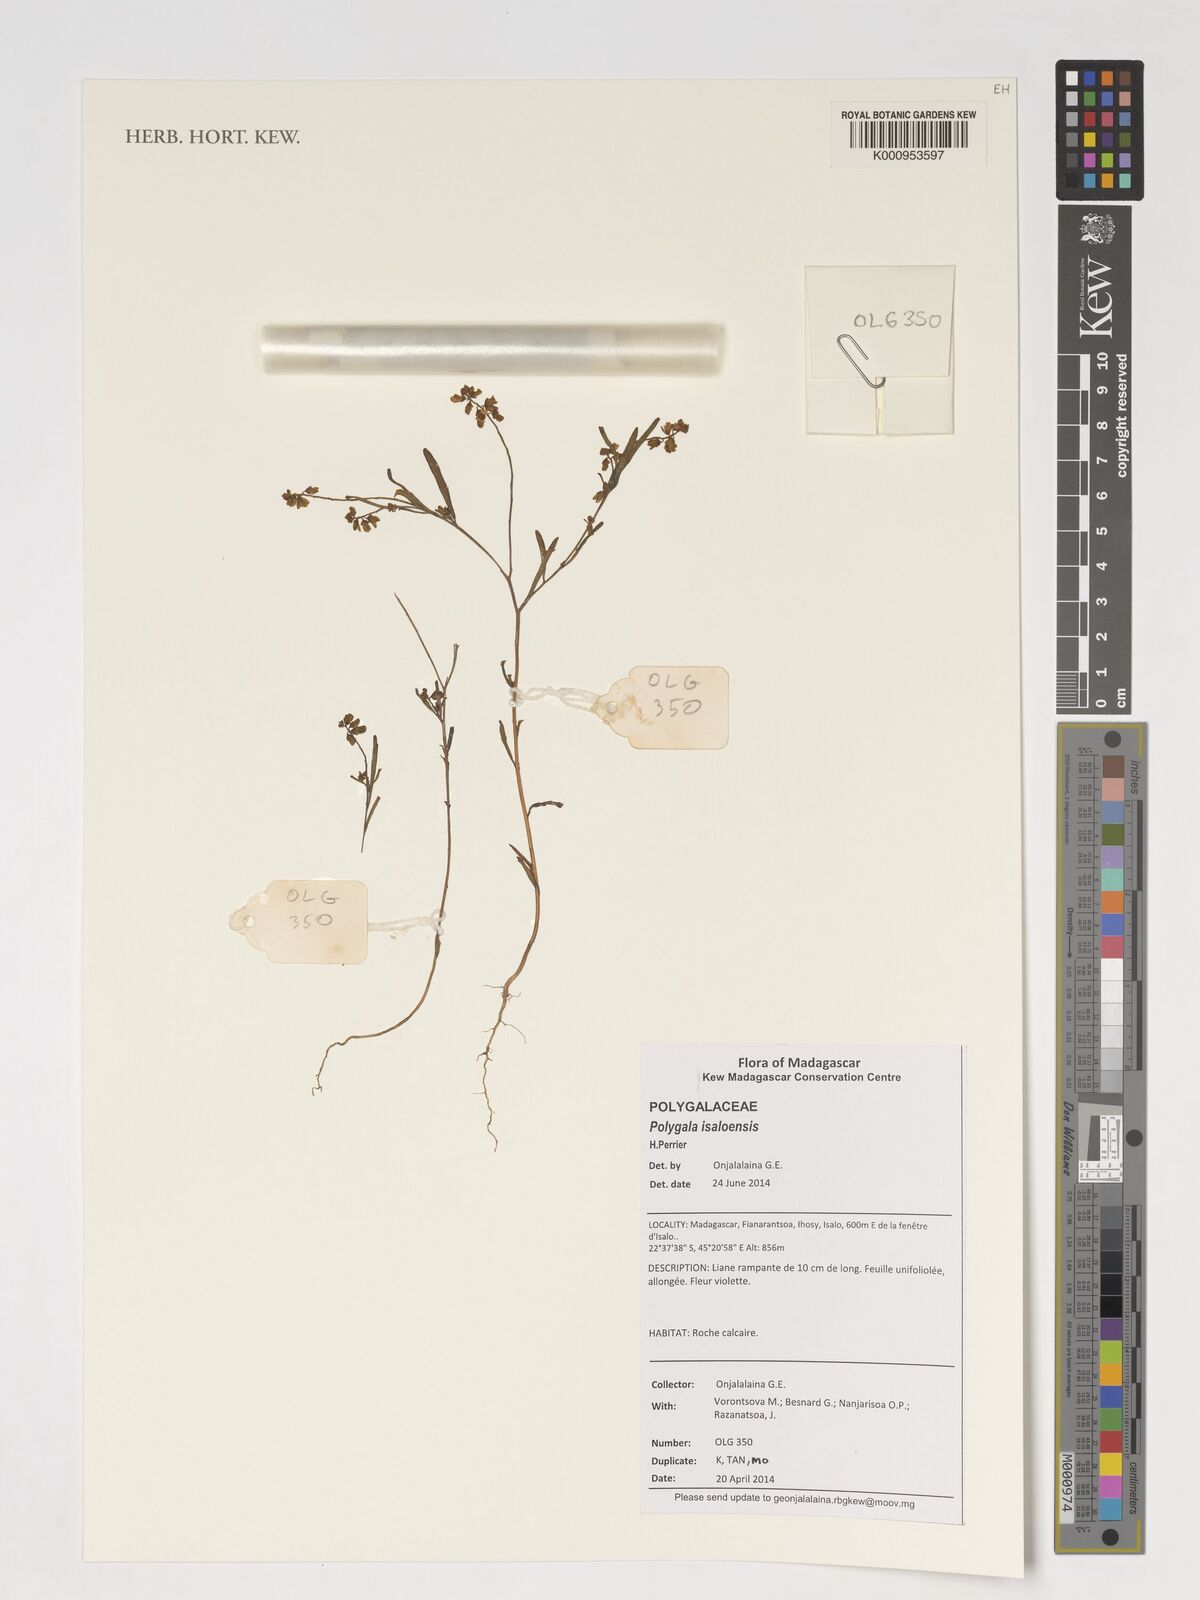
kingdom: Plantae
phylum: Tracheophyta
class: Magnoliopsida
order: Fabales
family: Polygalaceae
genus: Polygala
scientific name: Polygala isaloensis
